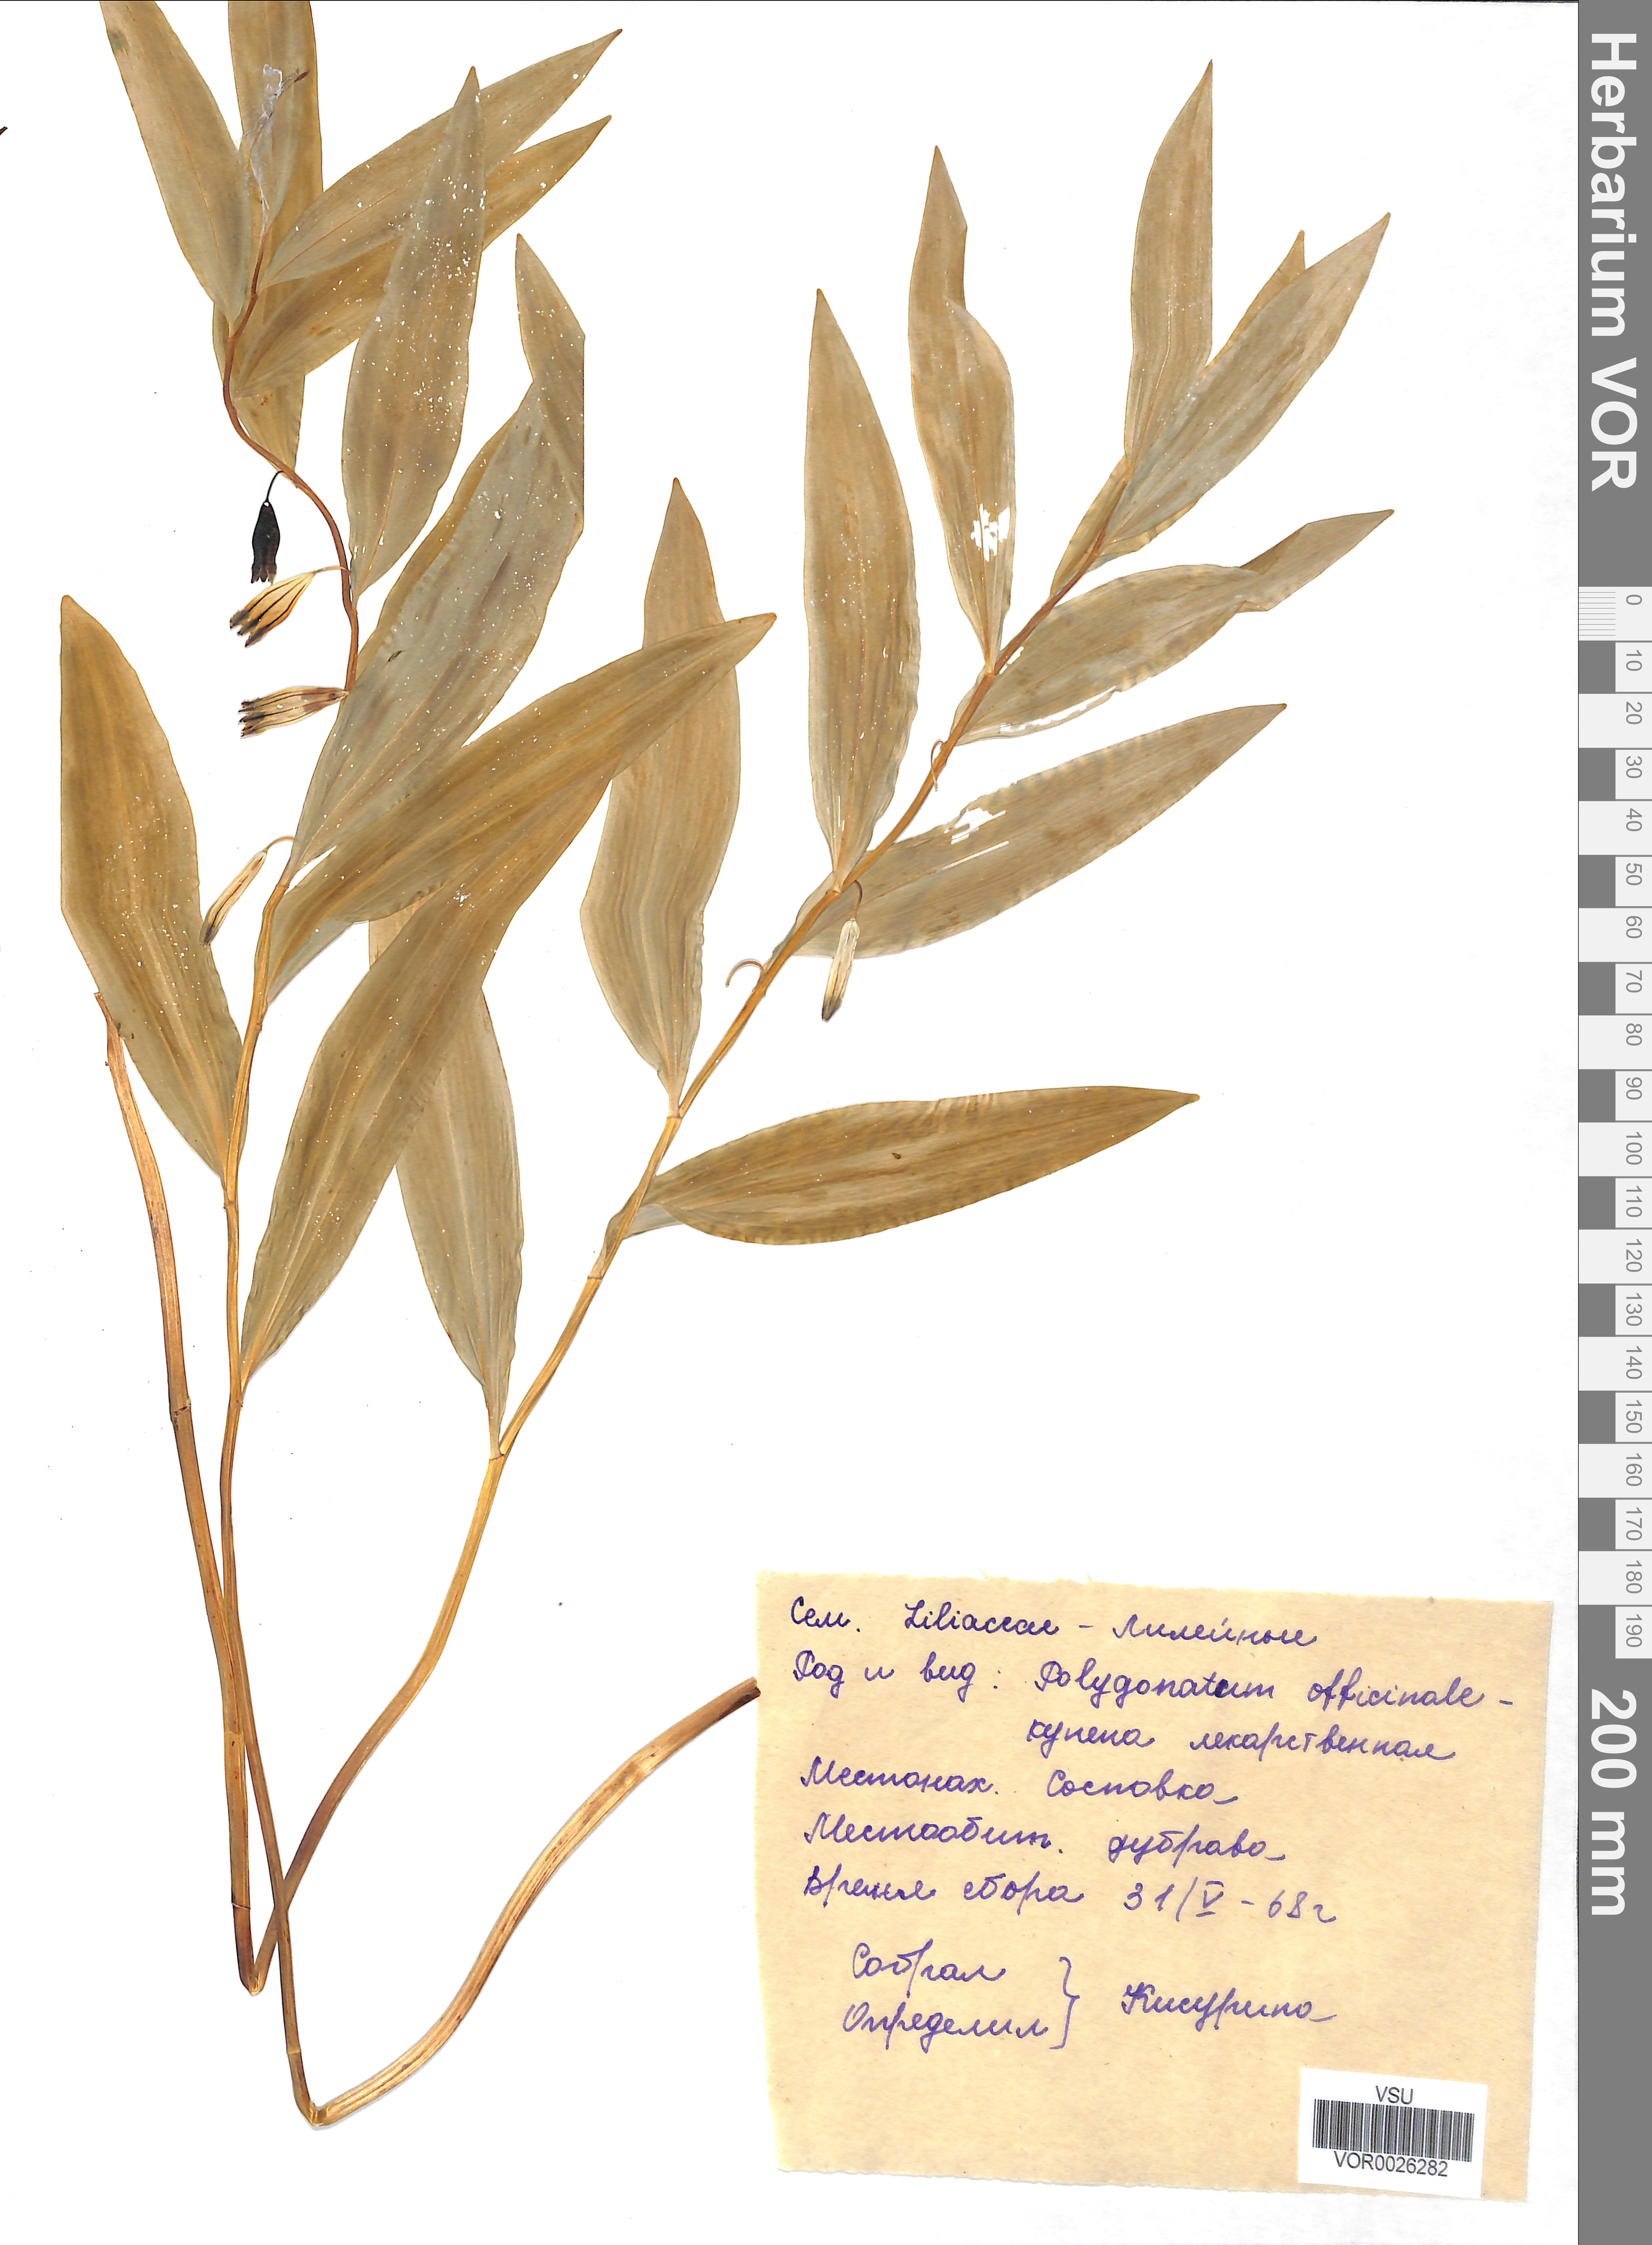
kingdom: Plantae
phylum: Tracheophyta
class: Liliopsida
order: Asparagales
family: Asparagaceae
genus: Polygonatum
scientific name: Polygonatum odoratum
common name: Angular solomon's-seal
